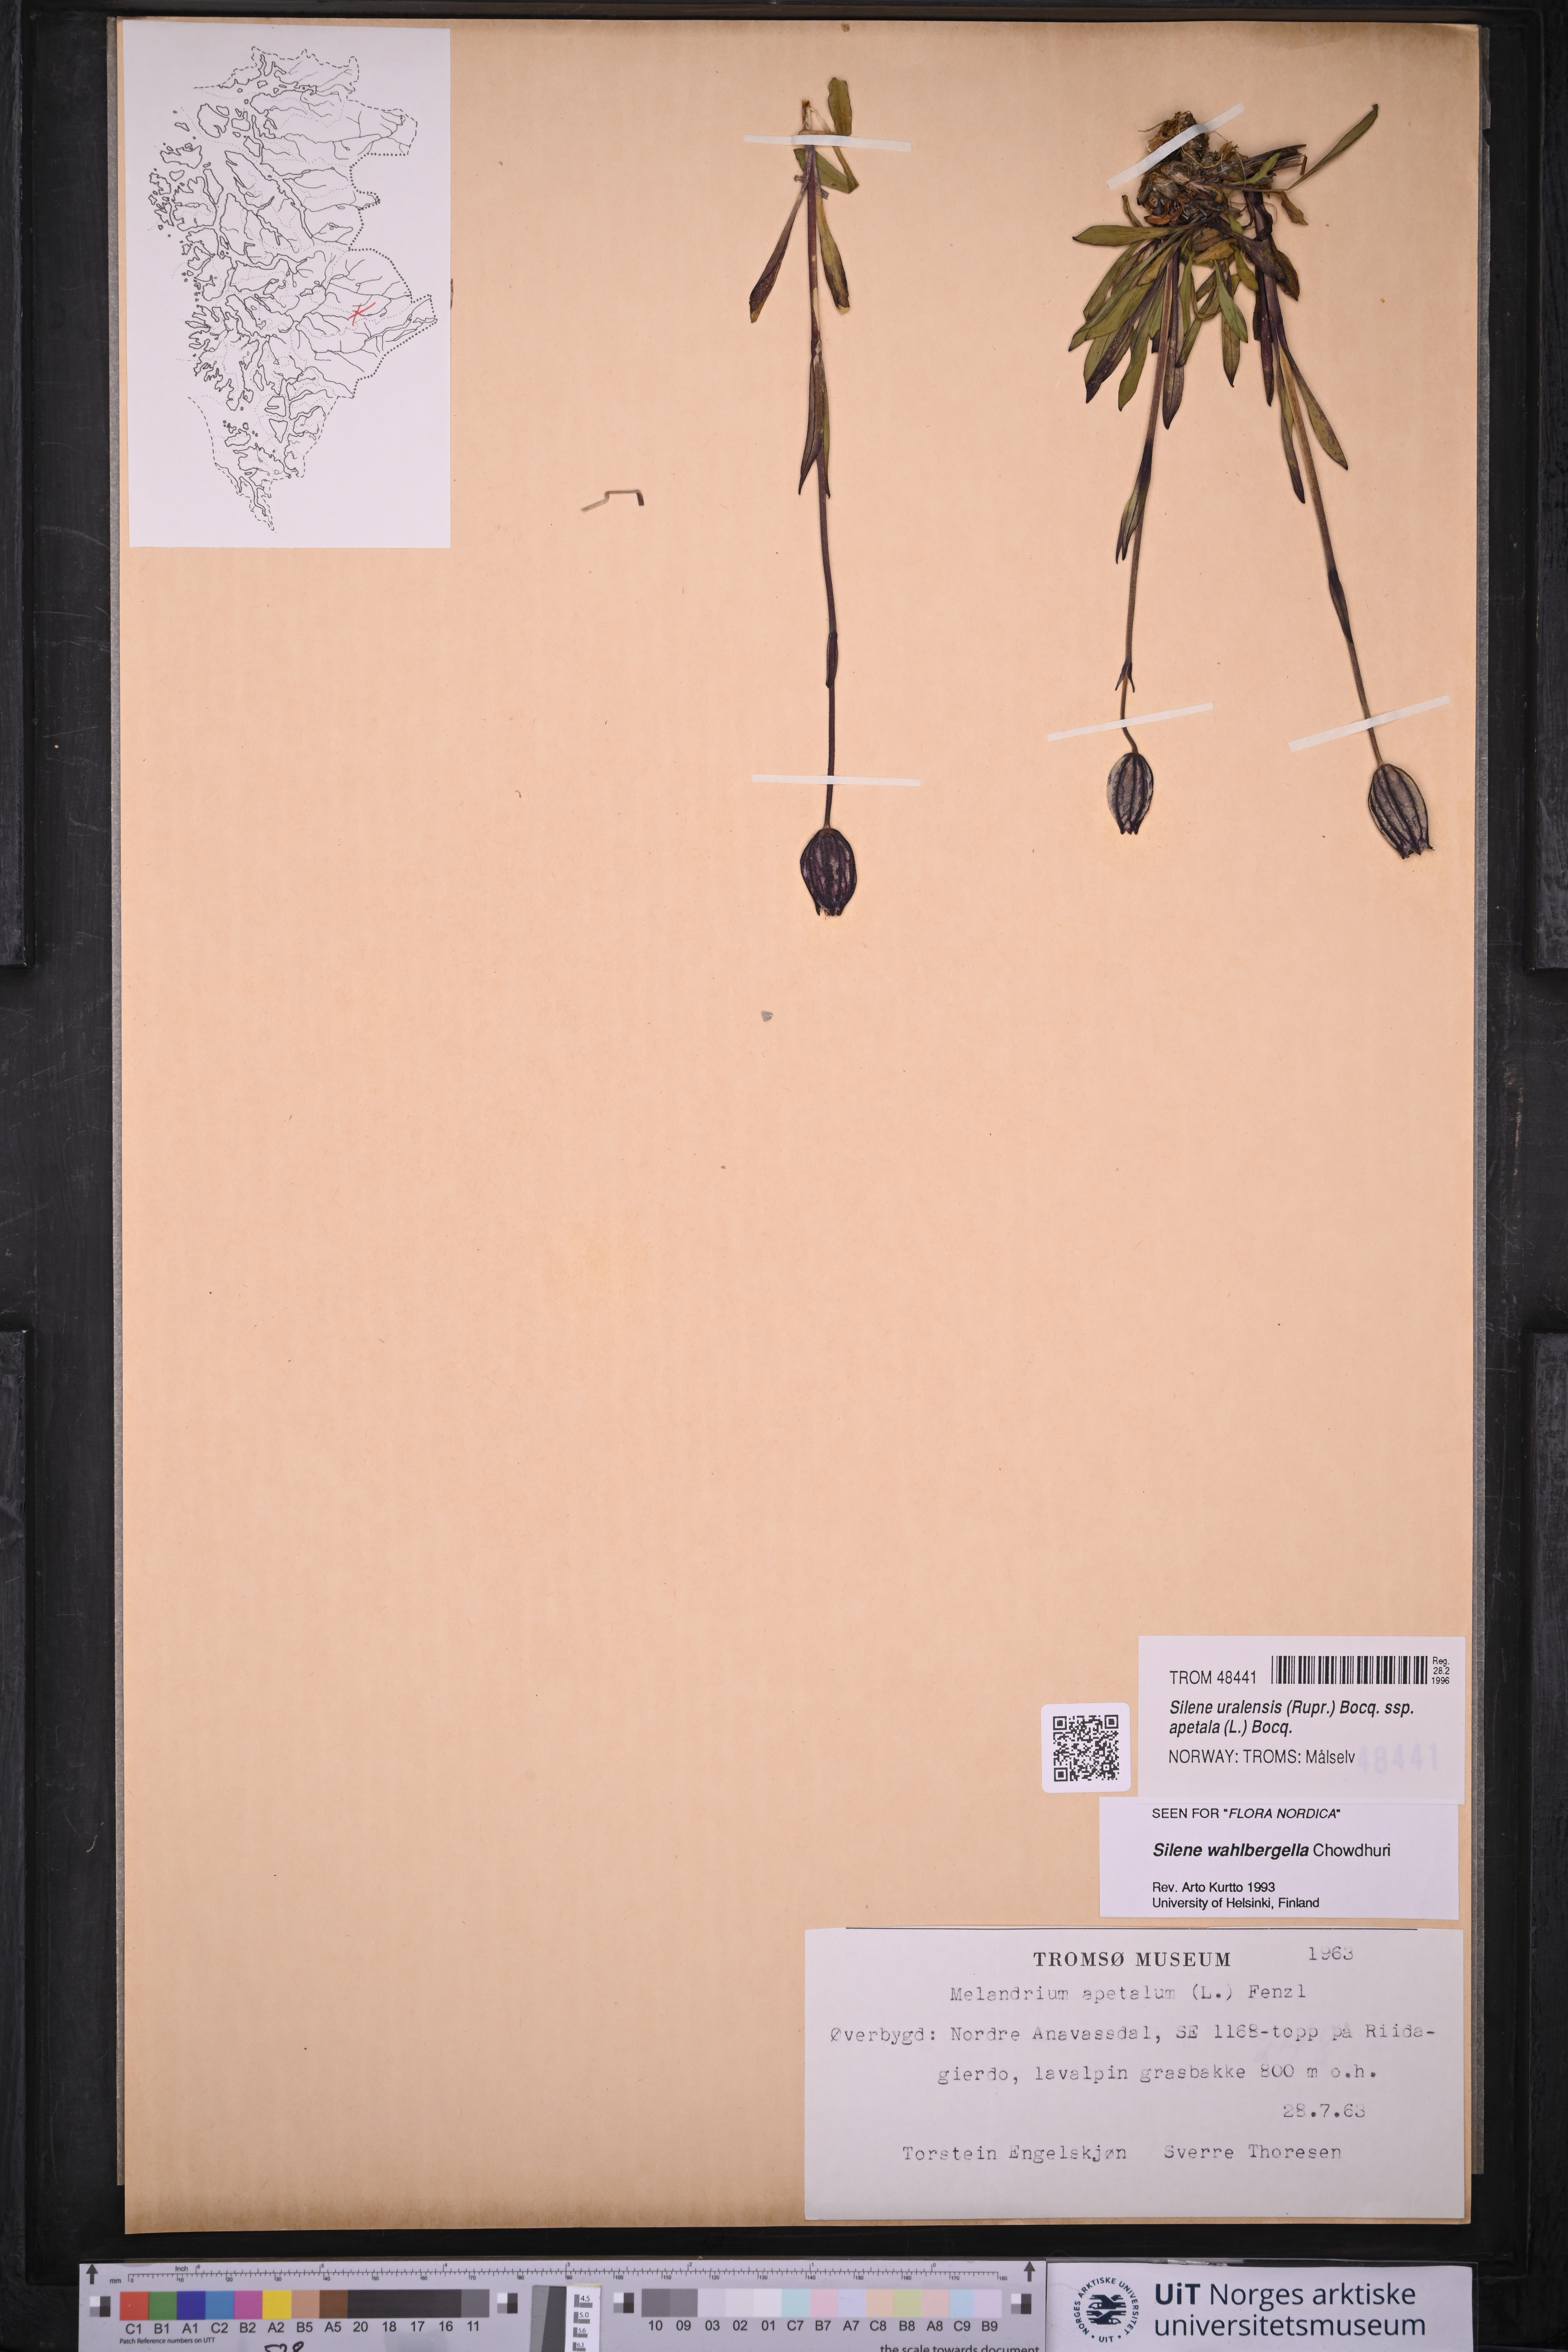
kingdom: Plantae
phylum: Tracheophyta
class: Magnoliopsida
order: Caryophyllales
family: Caryophyllaceae
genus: Silene
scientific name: Silene wahlbergella
